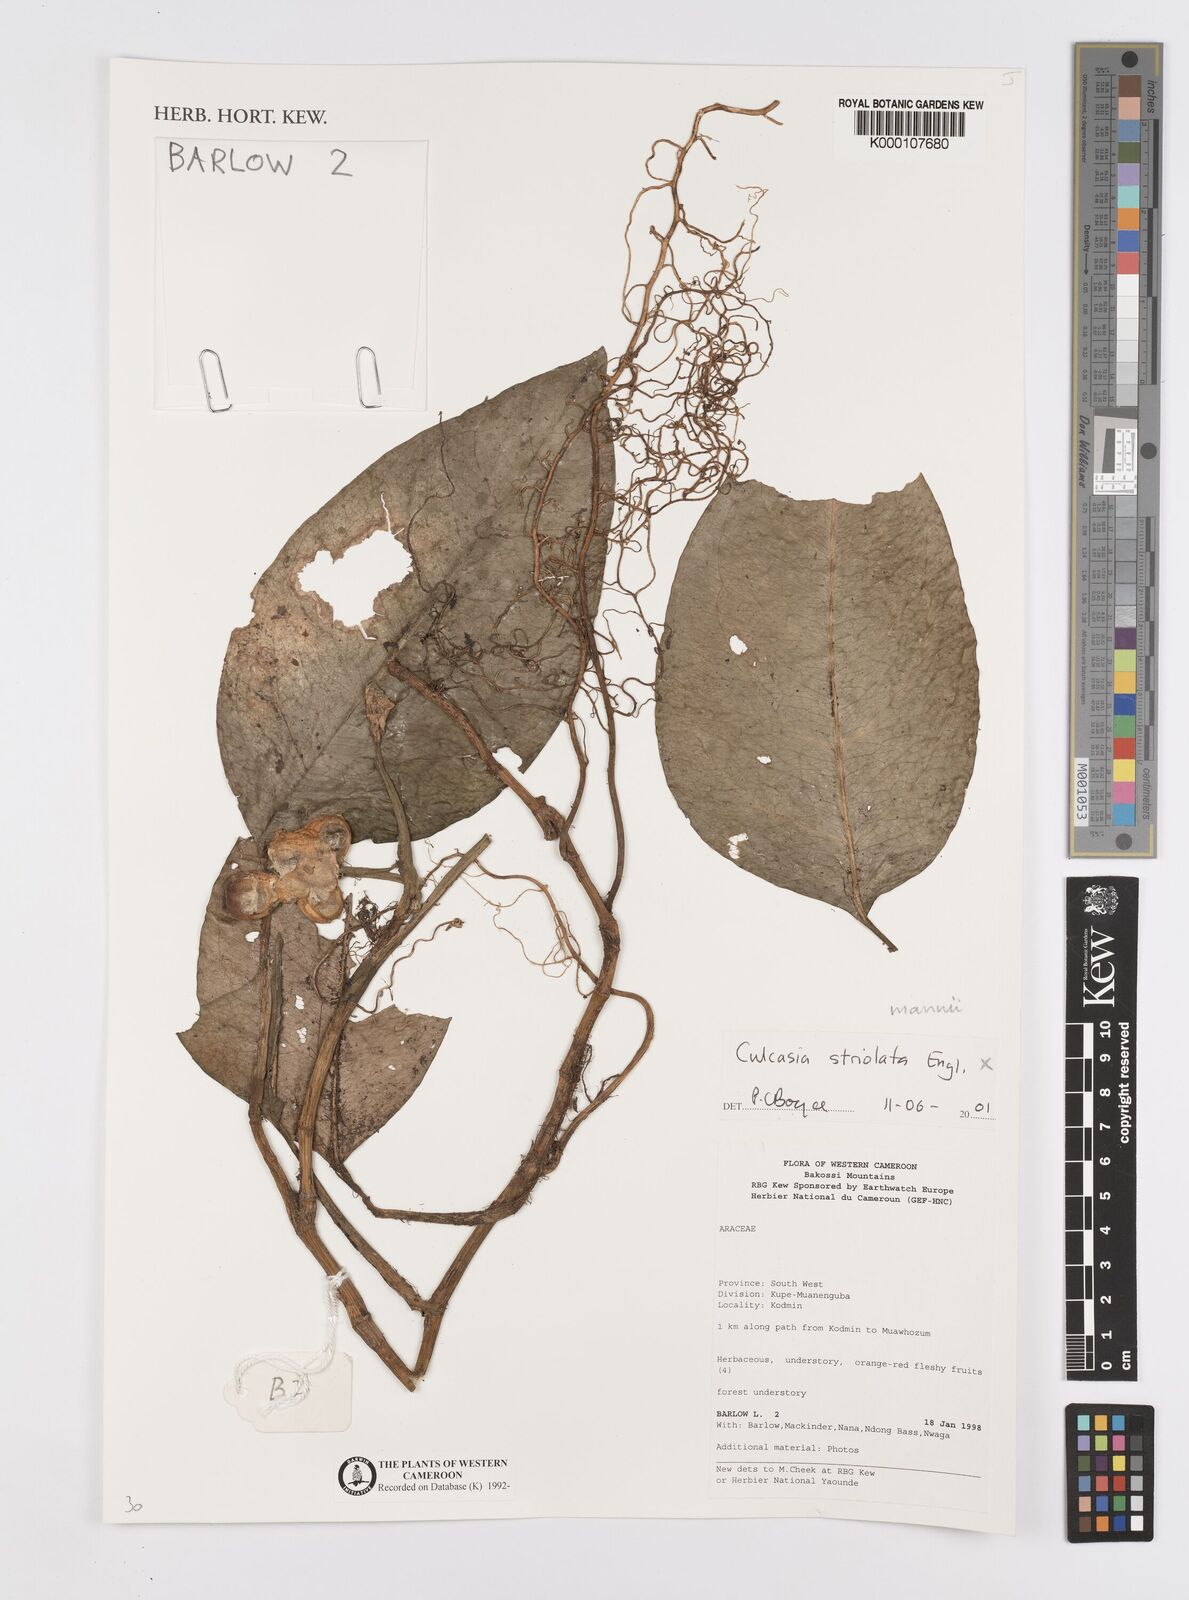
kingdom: Plantae
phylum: Tracheophyta
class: Liliopsida
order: Alismatales
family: Araceae
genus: Culcasia
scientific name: Culcasia striolata
